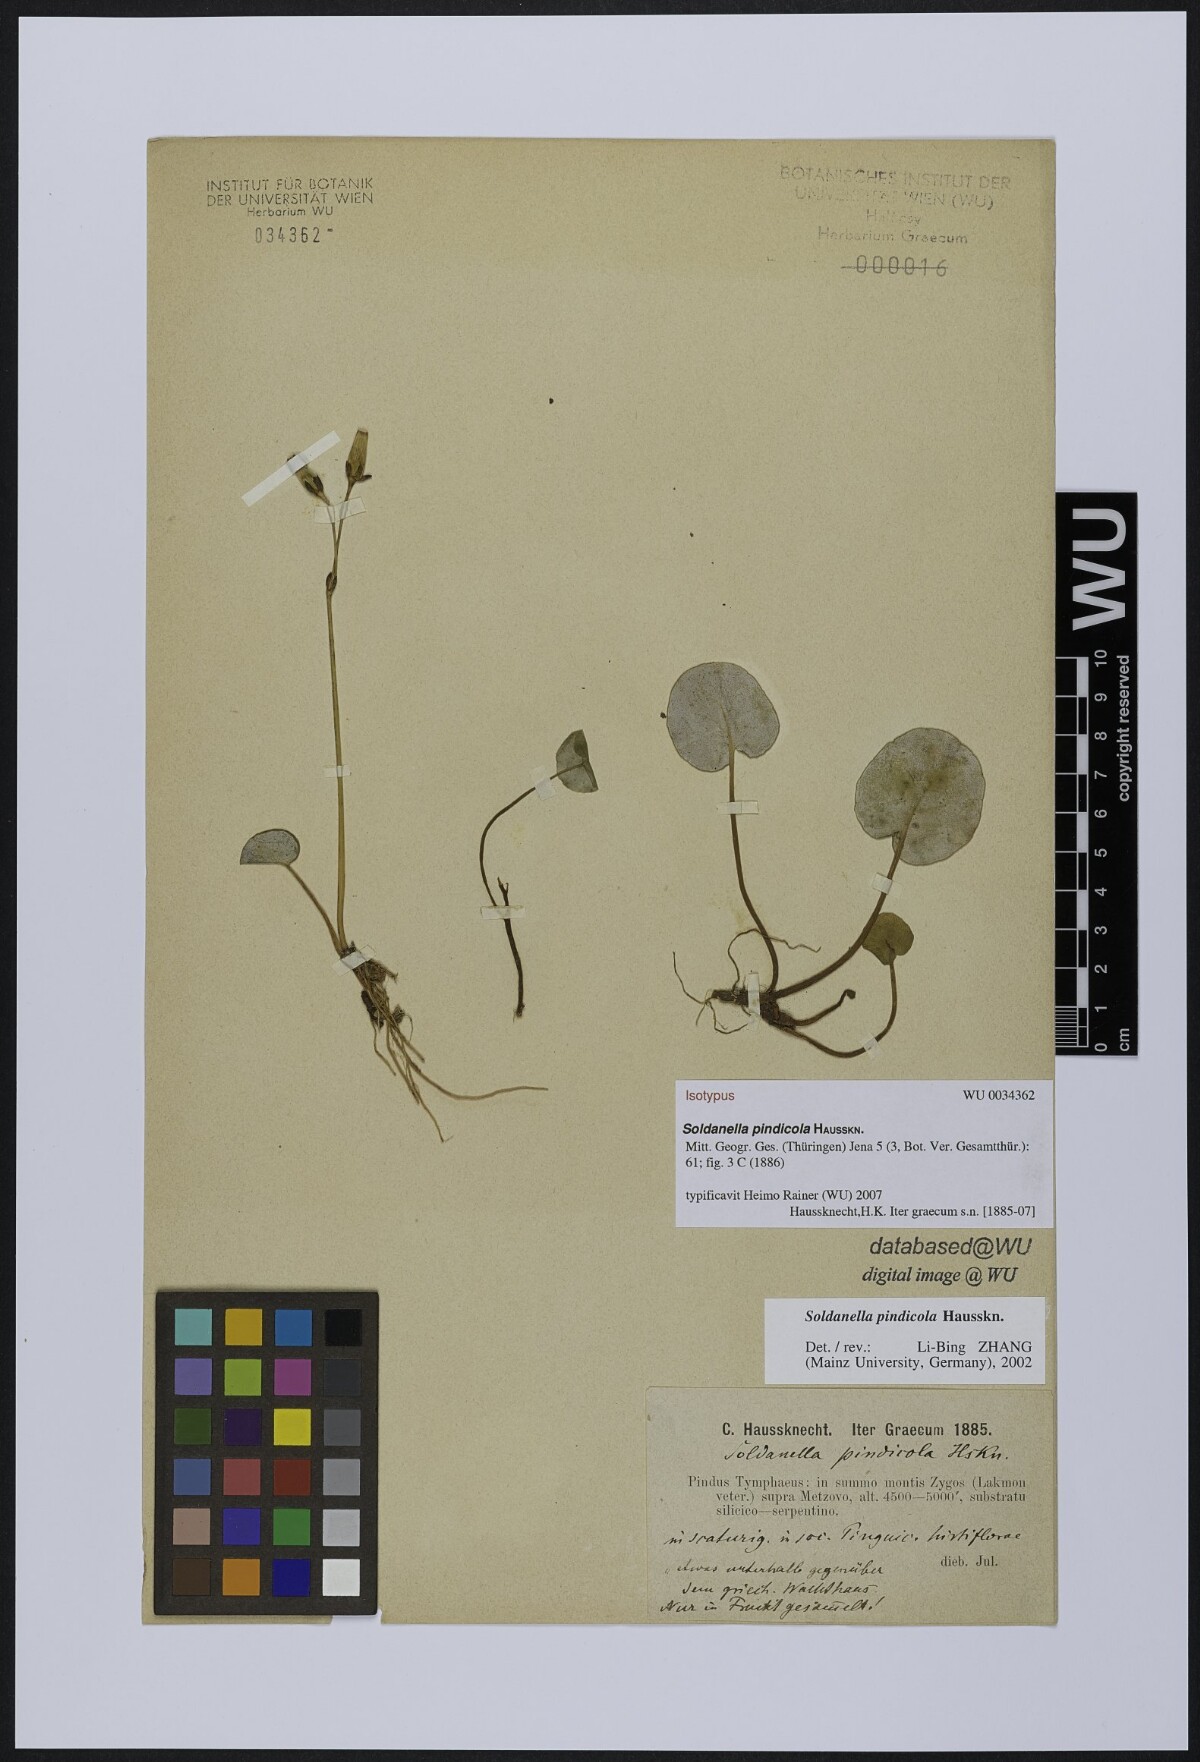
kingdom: Plantae
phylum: Tracheophyta
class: Magnoliopsida
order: Ericales
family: Primulaceae
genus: Soldanella
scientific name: Soldanella pindicola
